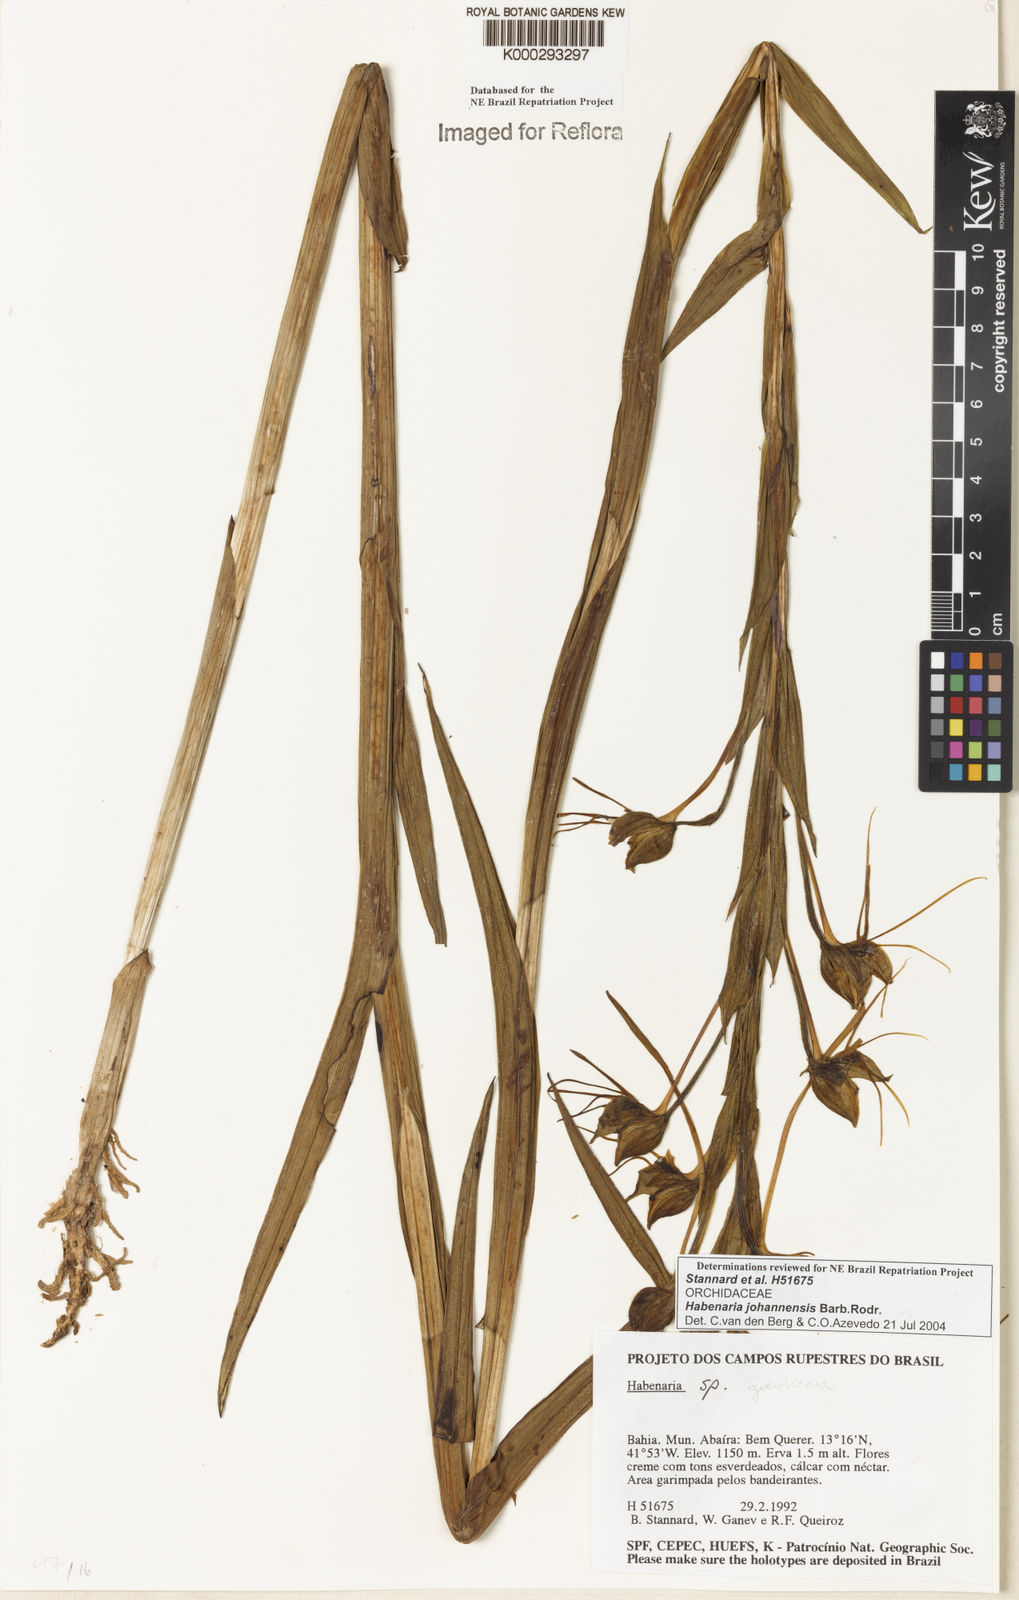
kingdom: Plantae
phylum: Tracheophyta
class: Liliopsida
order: Asparagales
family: Orchidaceae
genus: Habenaria
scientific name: Habenaria johannensis
